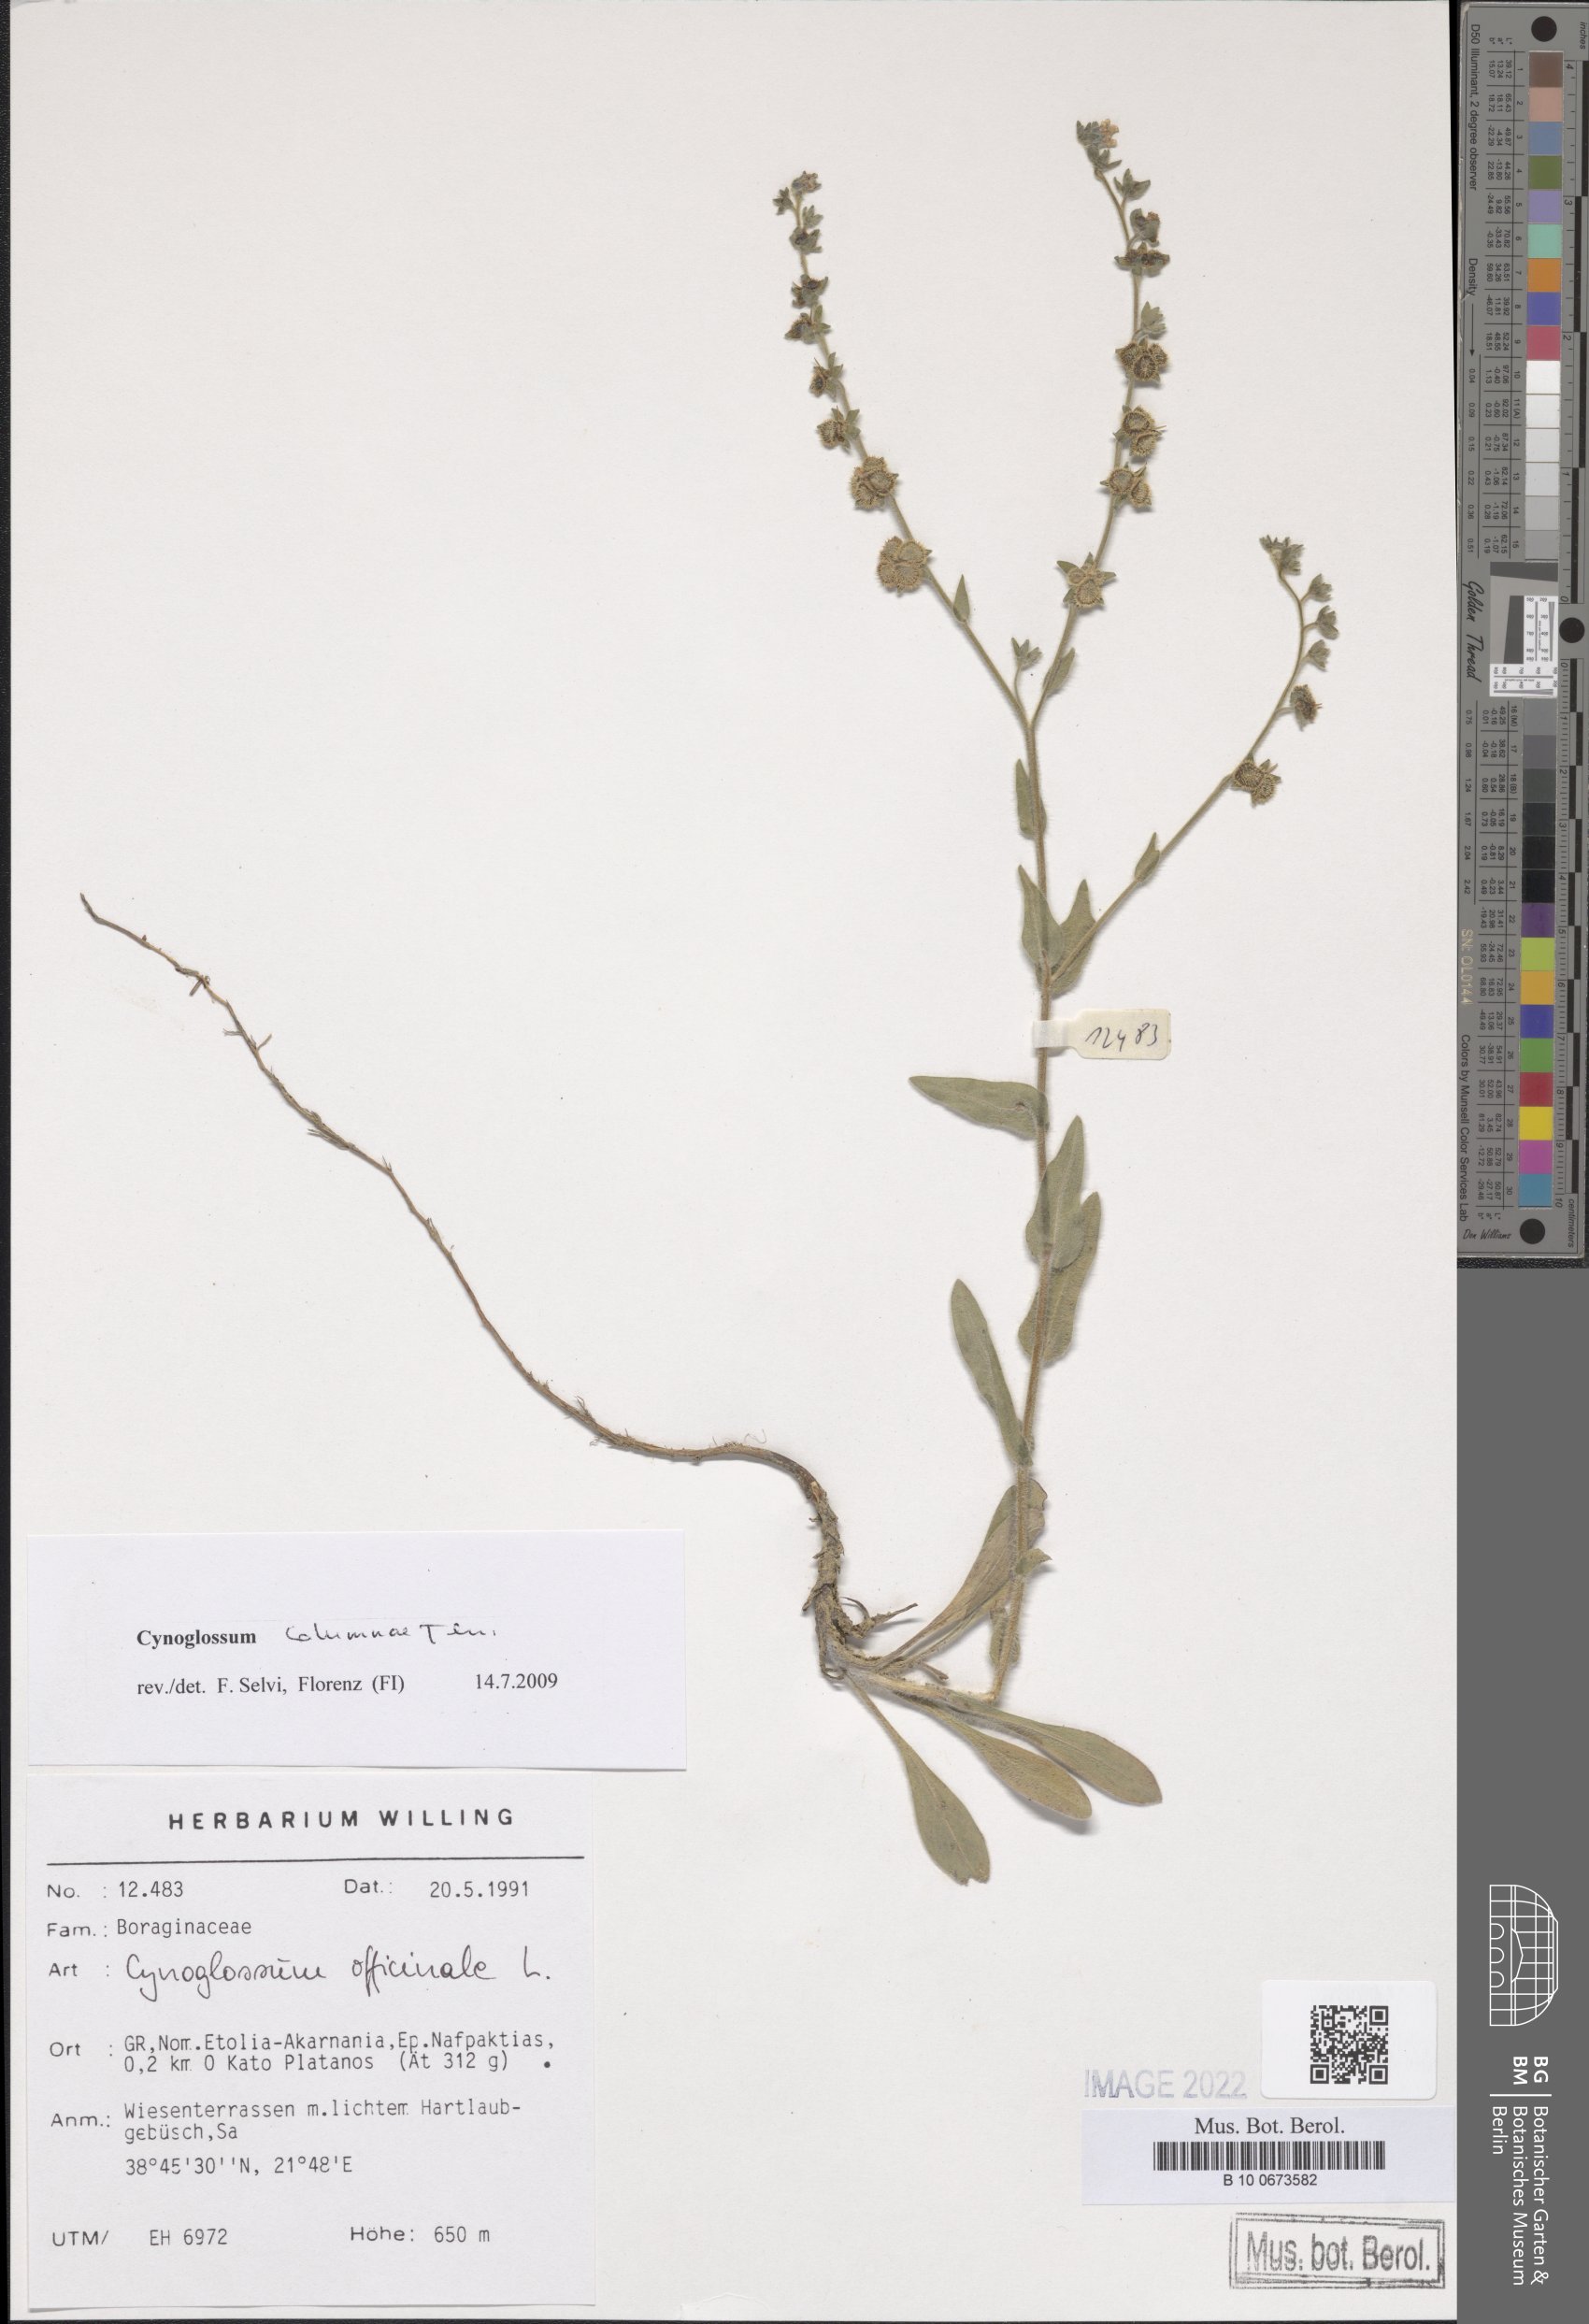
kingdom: Plantae
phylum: Tracheophyta
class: Magnoliopsida
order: Boraginales
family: Boraginaceae
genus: Rindera
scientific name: Rindera columnae
